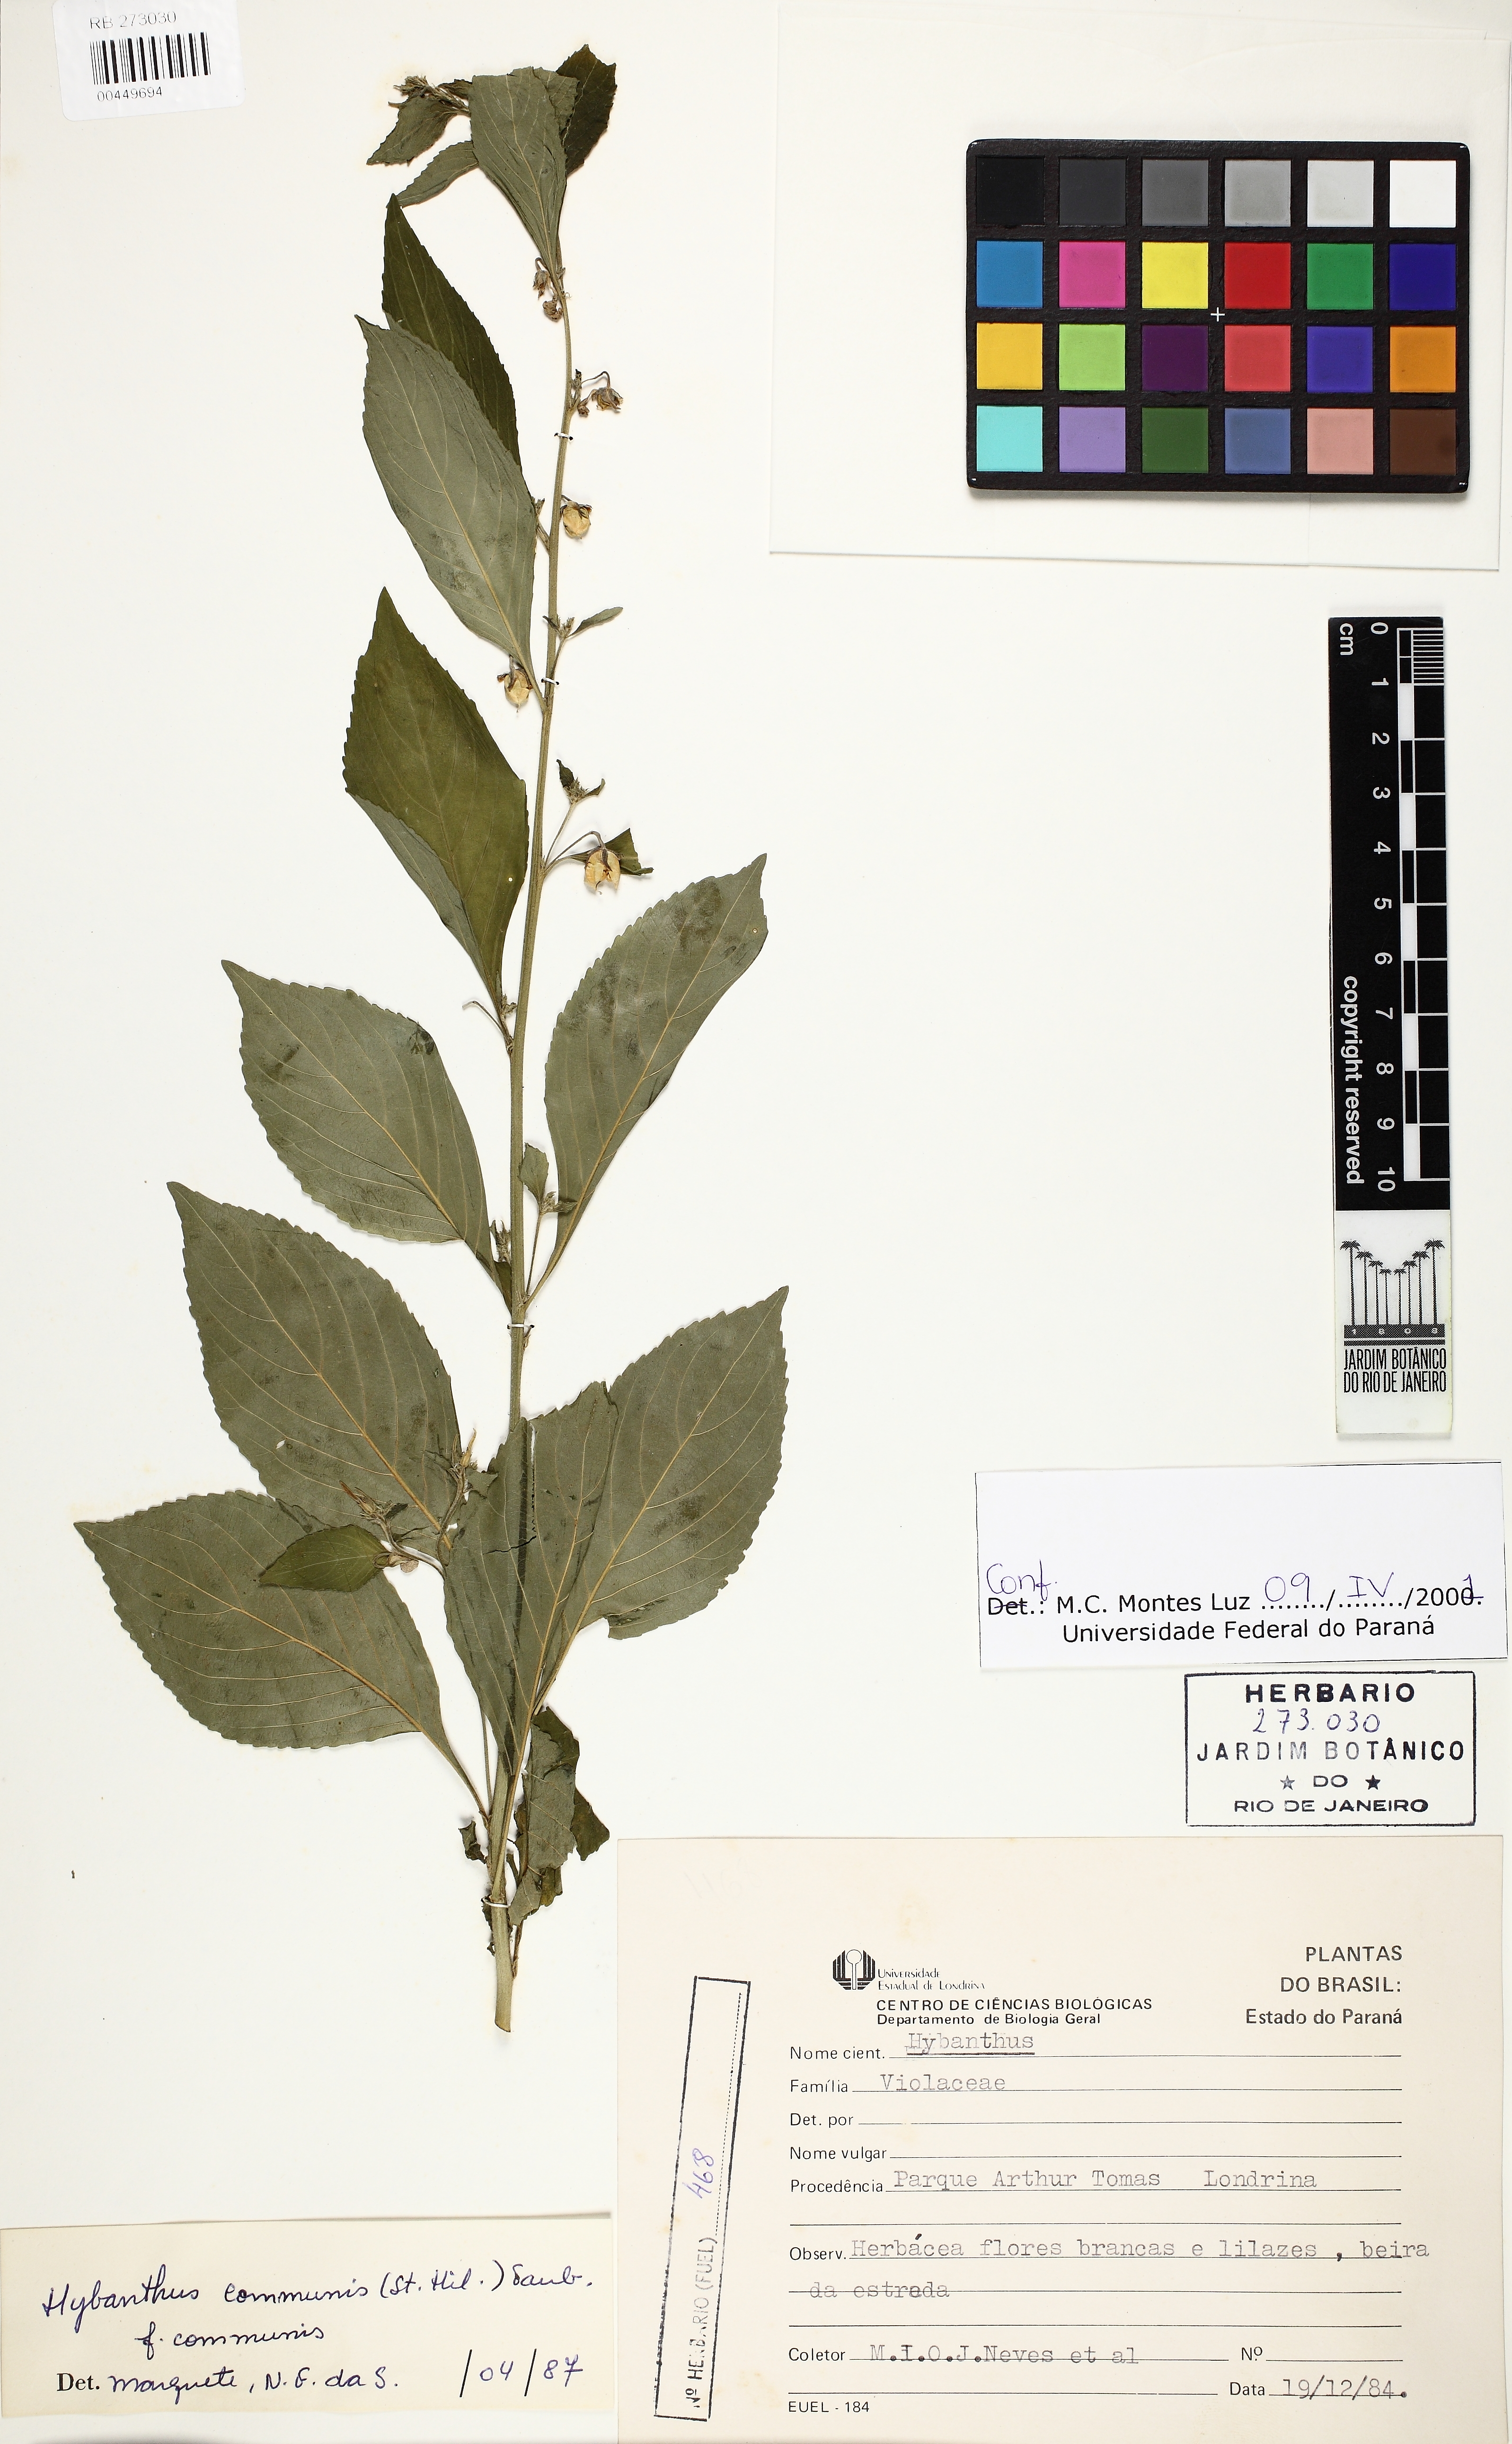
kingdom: Plantae
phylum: Tracheophyta
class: Magnoliopsida
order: Malpighiales
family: Violaceae
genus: Pombalia
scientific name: Pombalia communis
